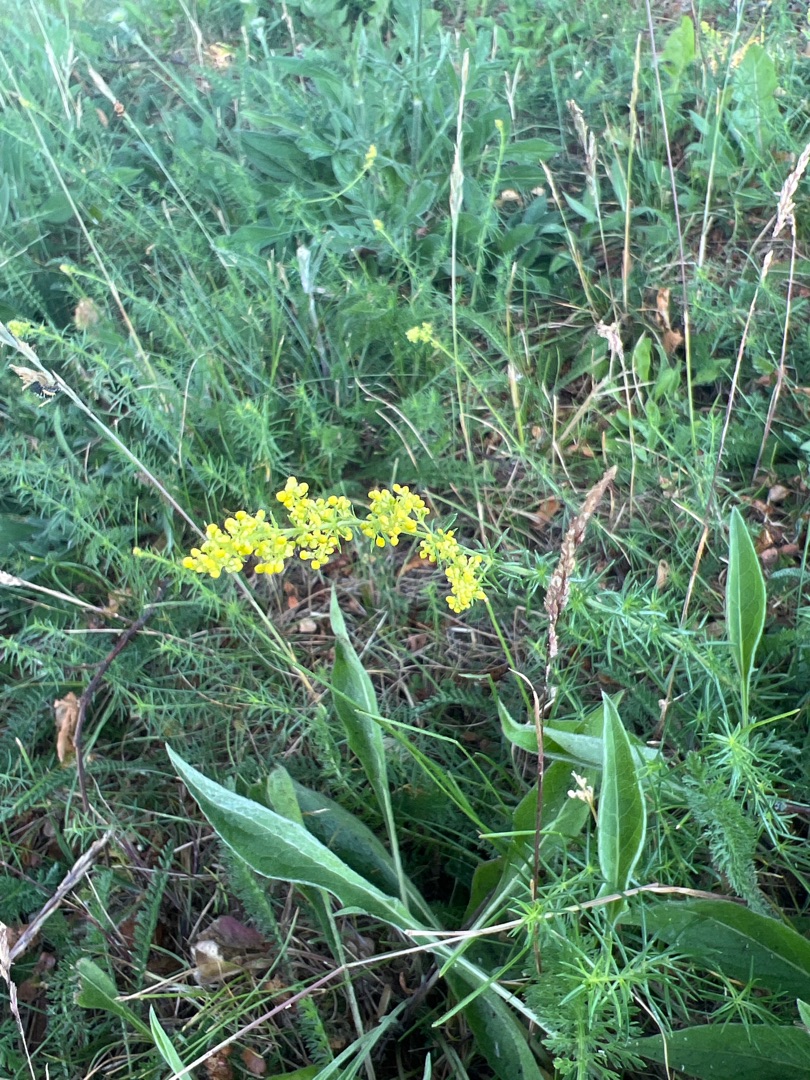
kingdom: Plantae
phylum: Tracheophyta
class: Magnoliopsida
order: Gentianales
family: Rubiaceae
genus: Galium
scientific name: Galium verum
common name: Gul snerre
